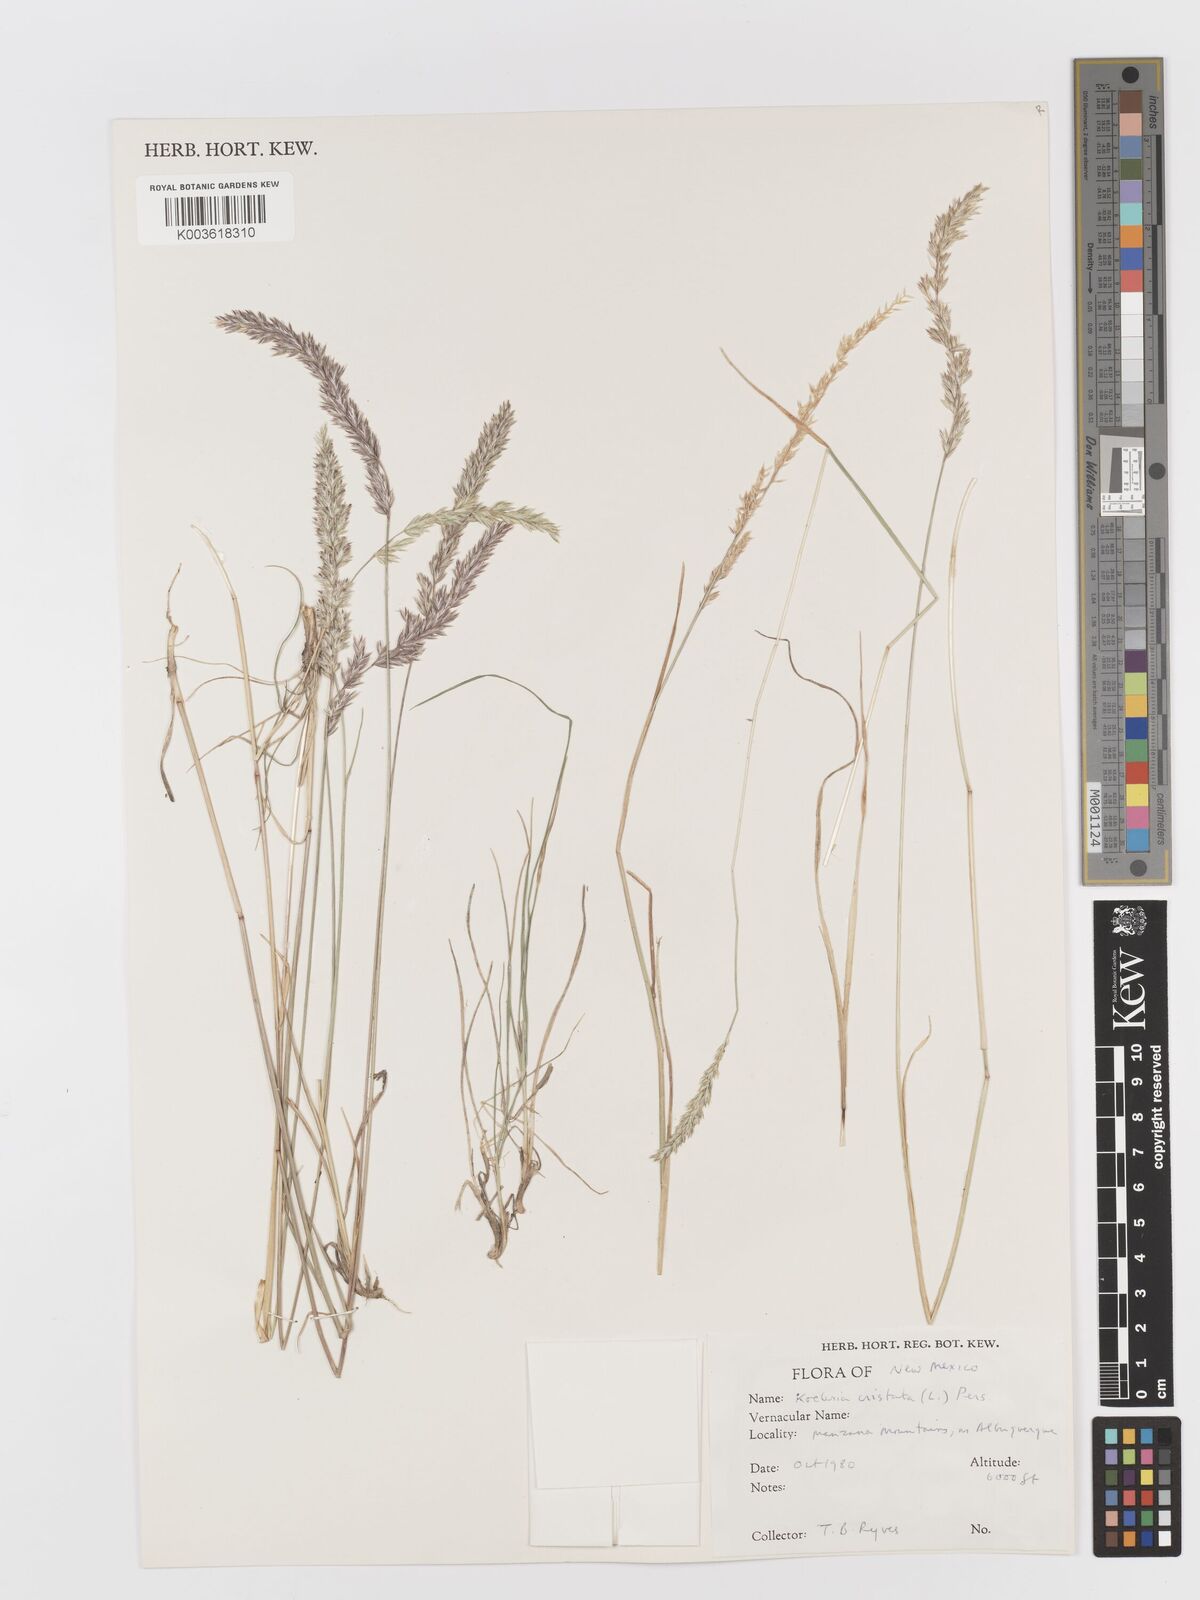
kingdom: Plantae
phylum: Tracheophyta
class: Liliopsida
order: Poales
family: Poaceae
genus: Koeleria
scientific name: Koeleria macrantha
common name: Crested hair-grass
